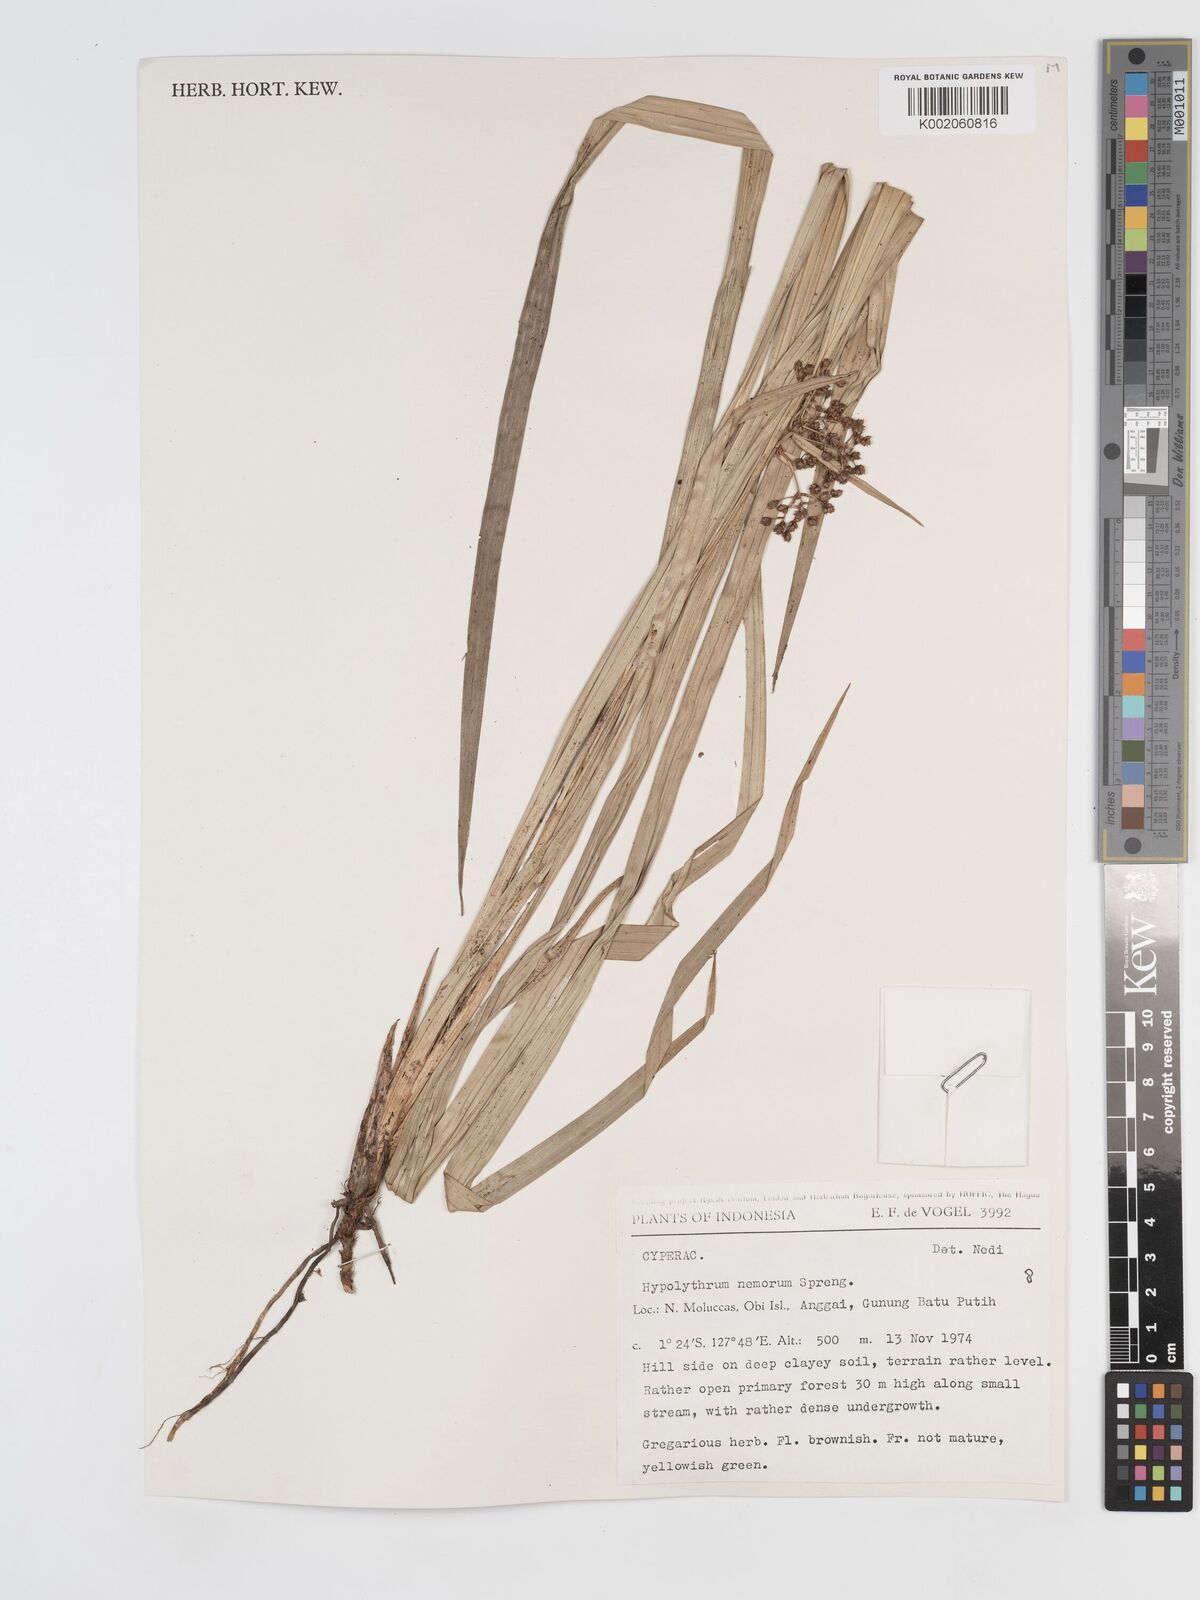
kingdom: Plantae
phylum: Tracheophyta
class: Liliopsida
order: Poales
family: Cyperaceae
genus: Hypolytrum
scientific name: Hypolytrum nemorum
